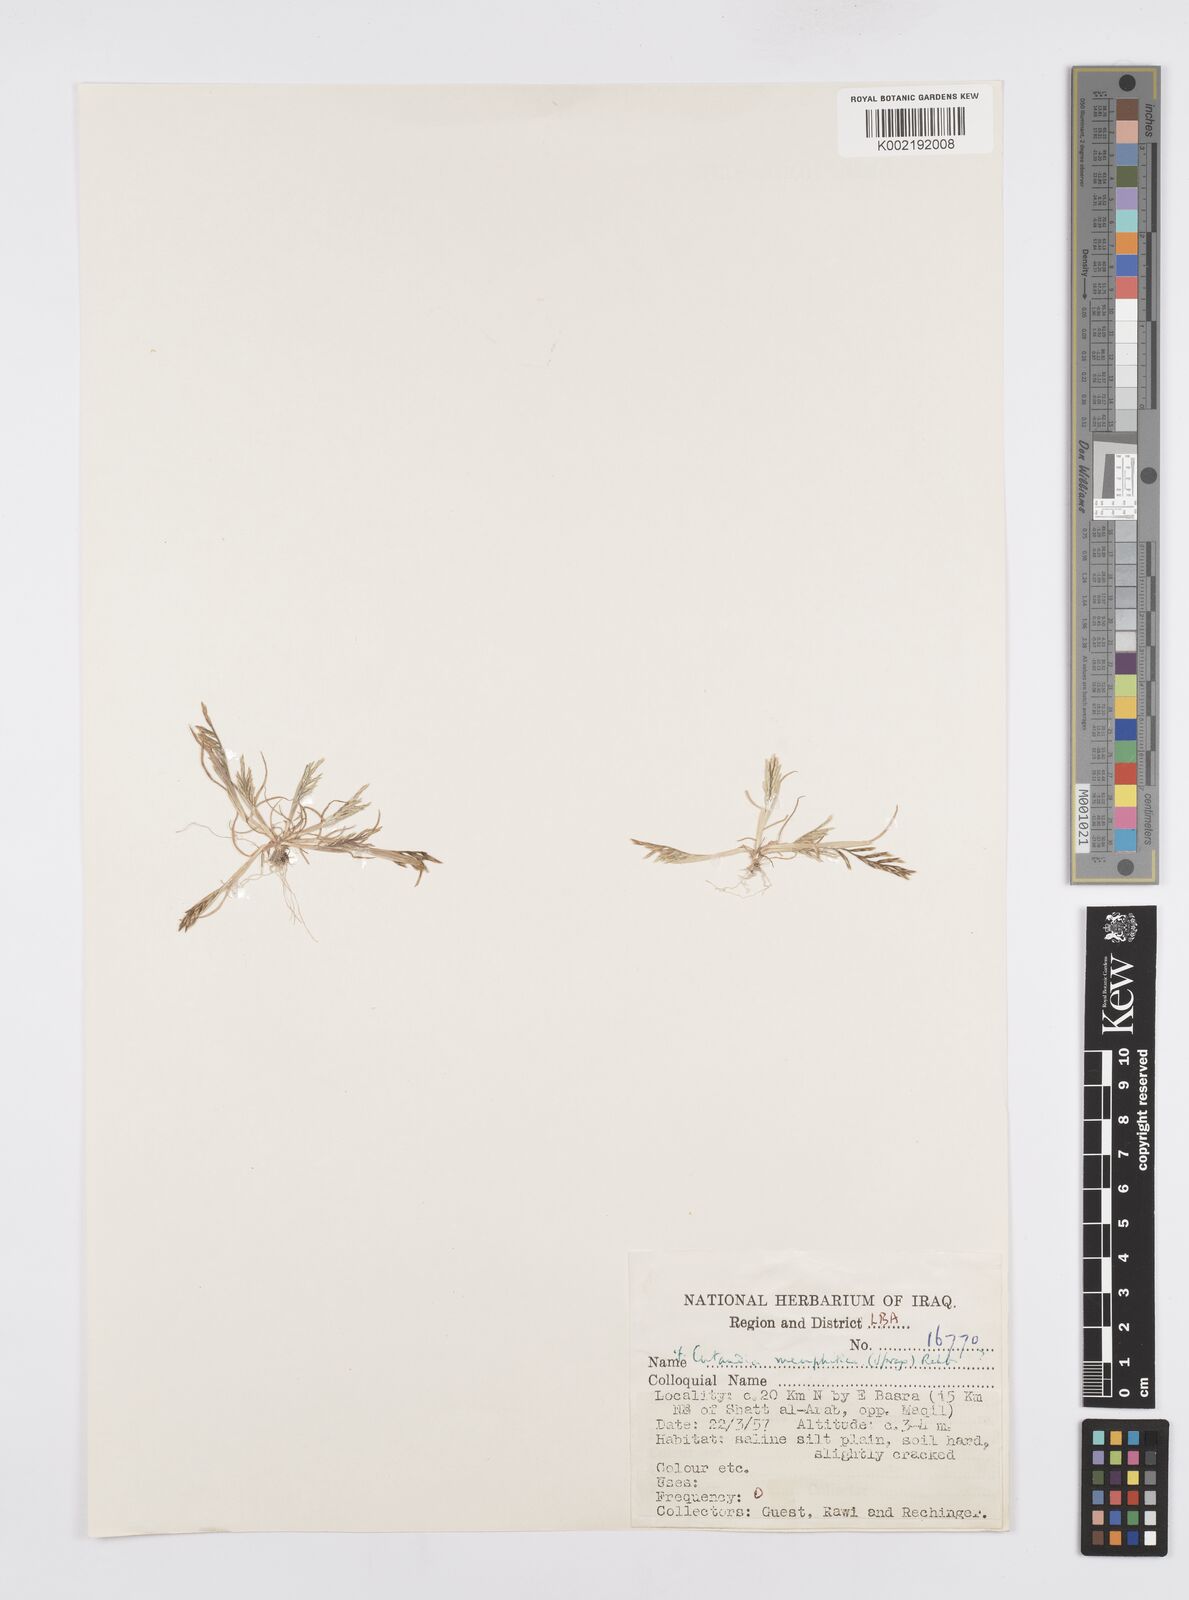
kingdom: Plantae
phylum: Tracheophyta
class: Liliopsida
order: Poales
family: Poaceae
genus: Cutandia
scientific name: Cutandia memphitica
